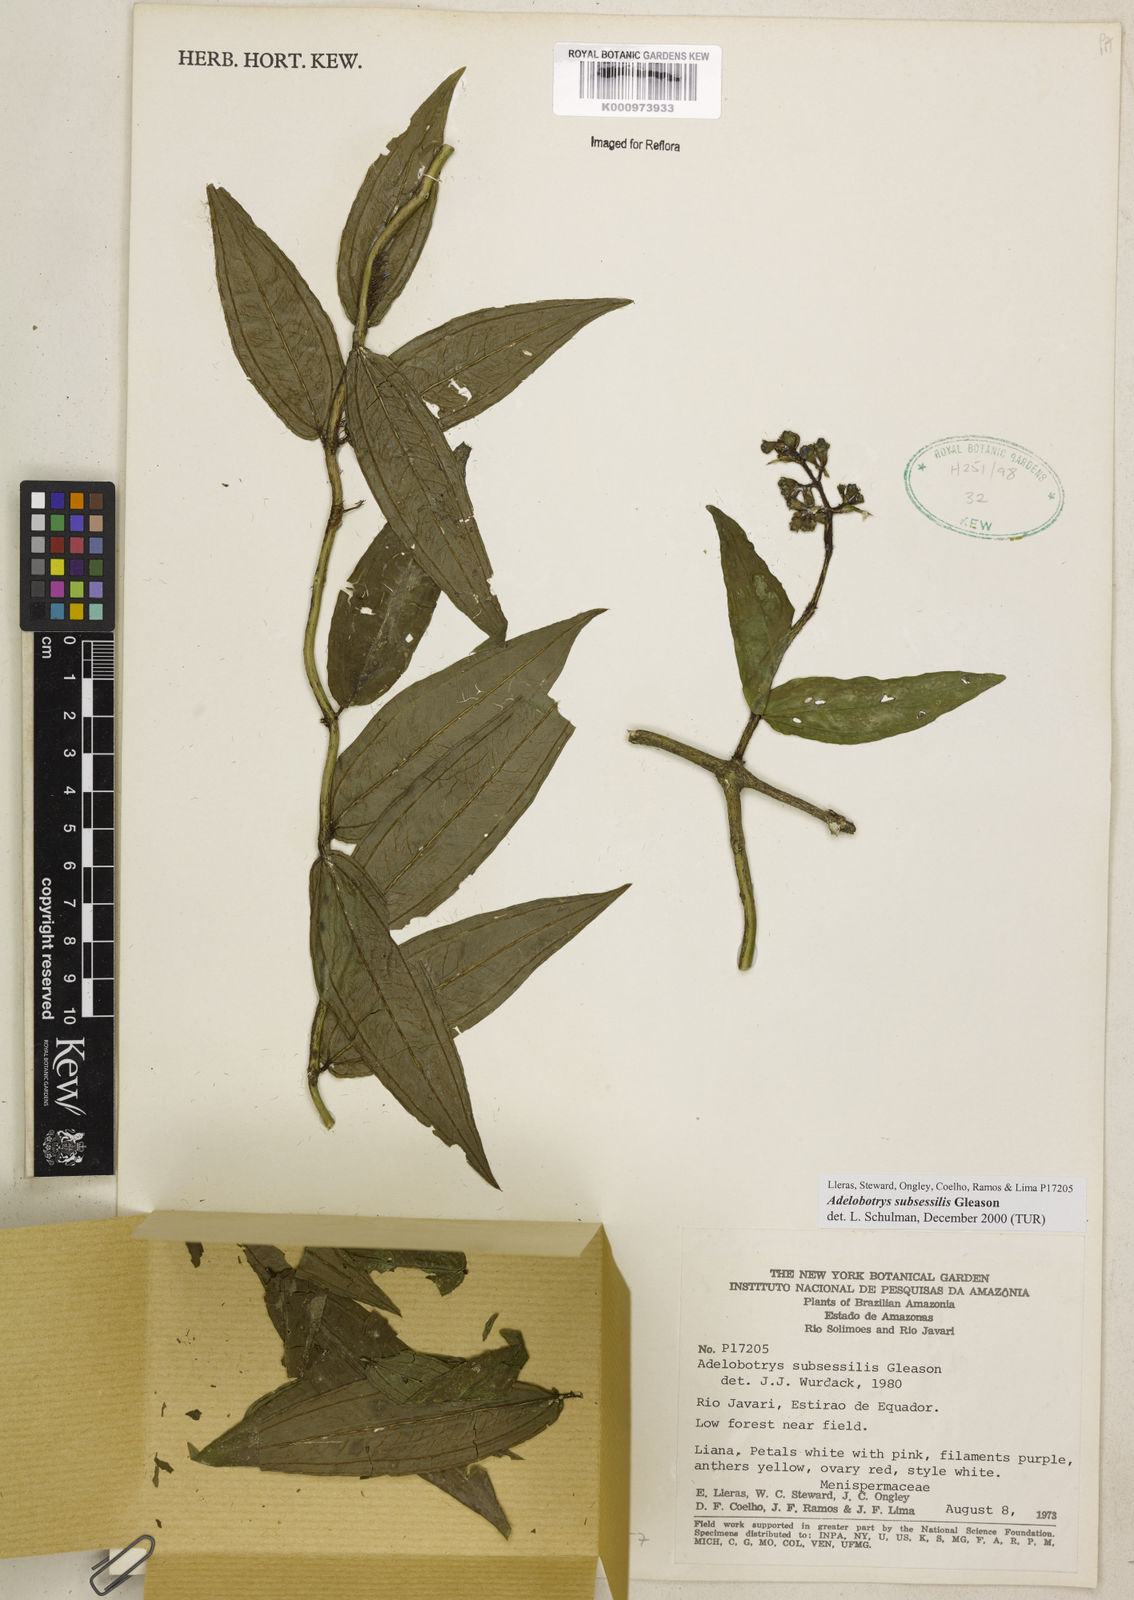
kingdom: Plantae
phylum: Tracheophyta
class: Magnoliopsida
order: Myrtales
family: Melastomataceae
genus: Adelobotrys
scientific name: Adelobotrys subsessilis
